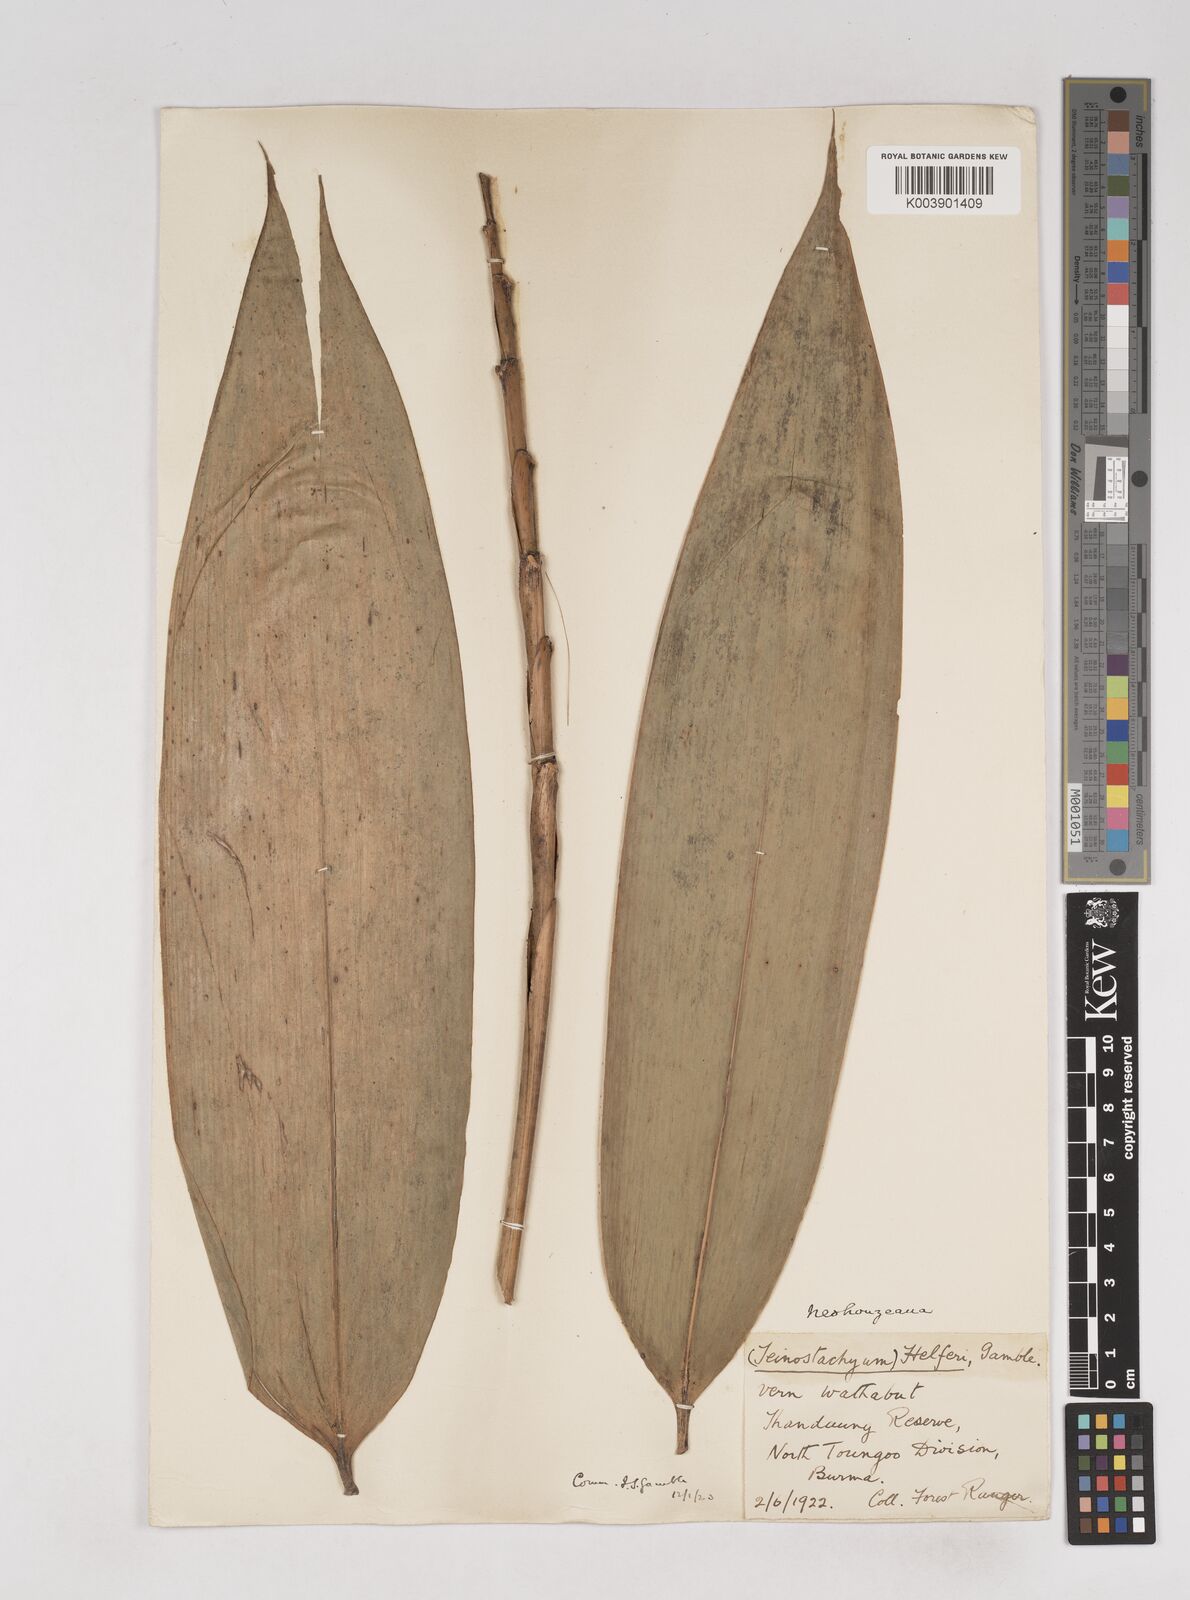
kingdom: Plantae
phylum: Tracheophyta
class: Liliopsida
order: Poales
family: Poaceae
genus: Schizostachyum
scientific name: Schizostachyum helferi
